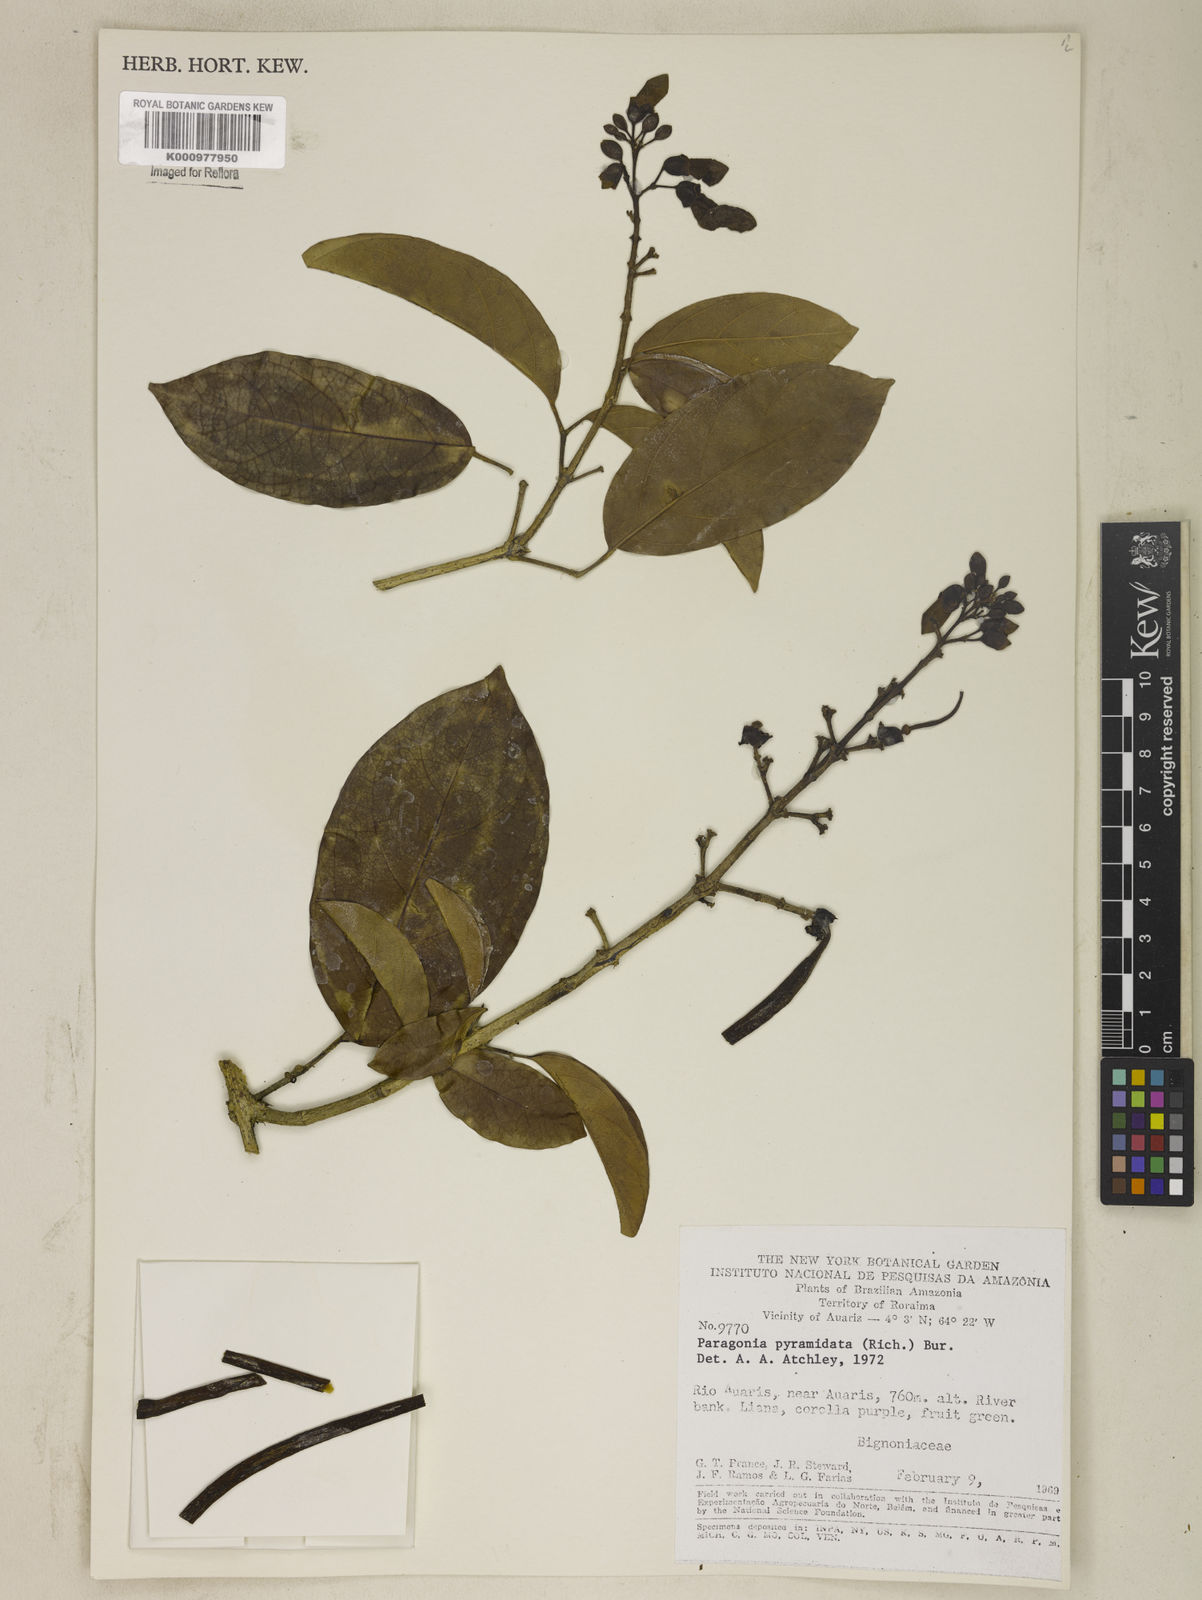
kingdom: Plantae
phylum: Tracheophyta
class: Magnoliopsida
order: Lamiales
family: Bignoniaceae
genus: Tanaecium
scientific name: Tanaecium pyramidatum
